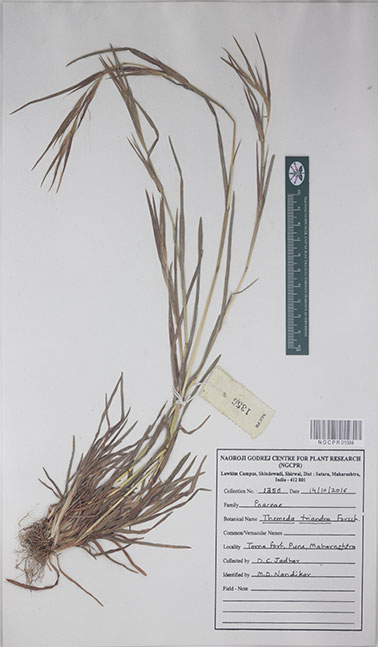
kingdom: Plantae
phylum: Tracheophyta
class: Liliopsida
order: Poales
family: Poaceae
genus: Themeda
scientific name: Themeda triandra
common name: Kangaroo grass
